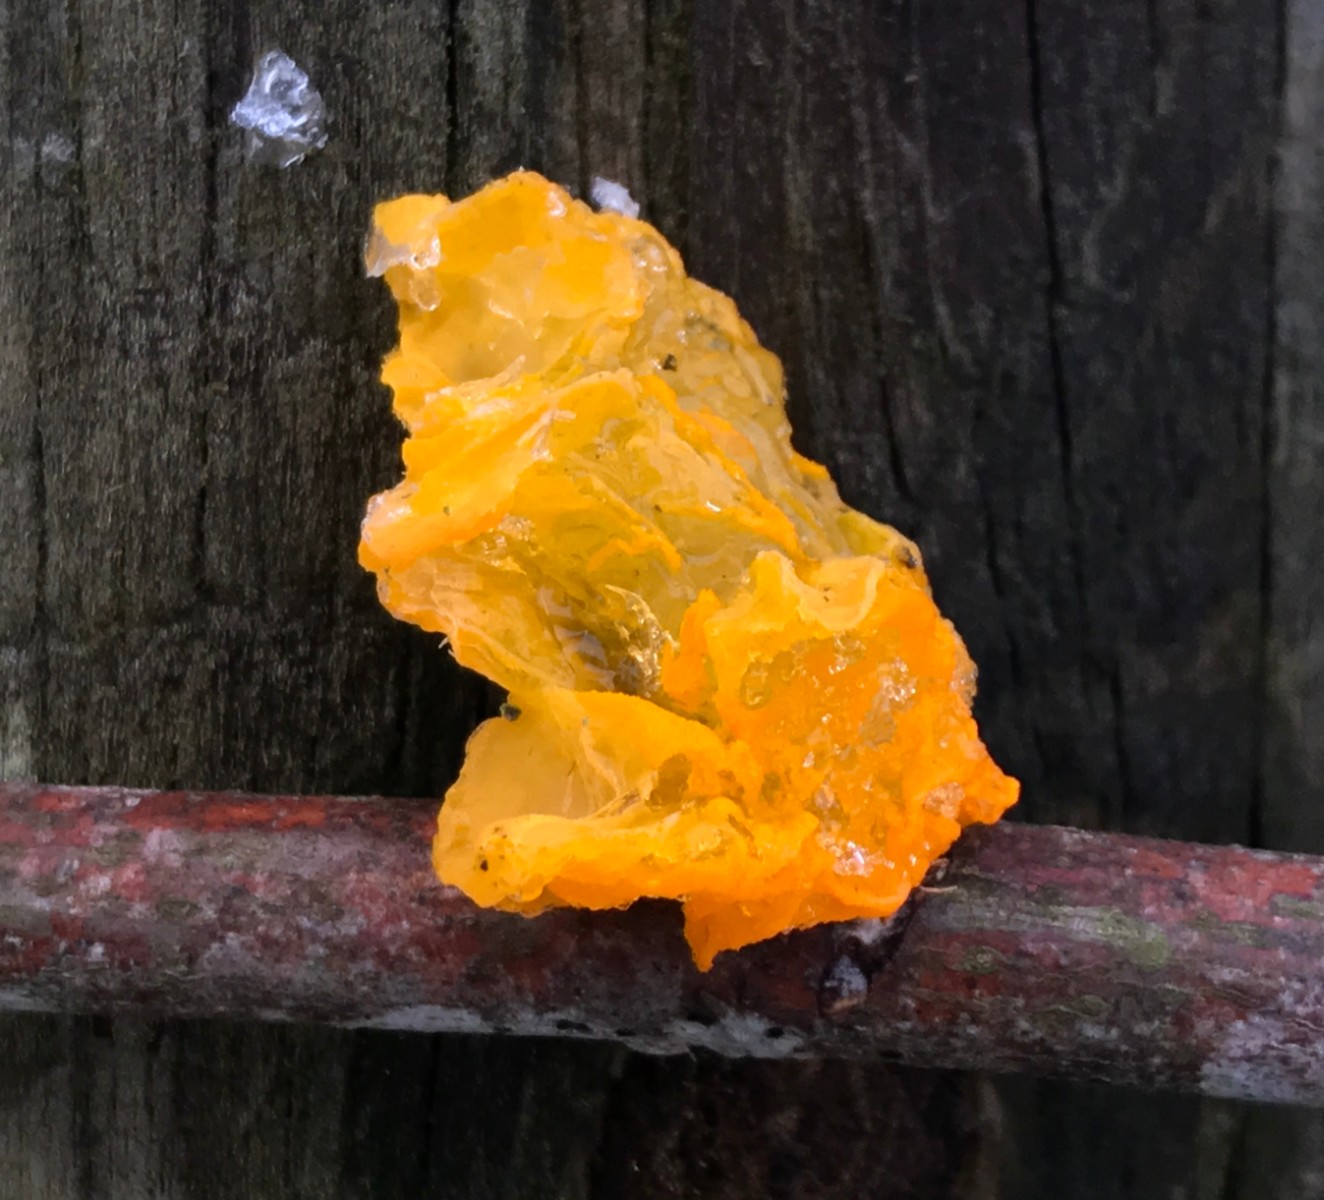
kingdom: Fungi
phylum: Basidiomycota
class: Tremellomycetes
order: Tremellales
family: Tremellaceae
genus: Tremella
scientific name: Tremella mesenterica
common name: gul bævresvamp
